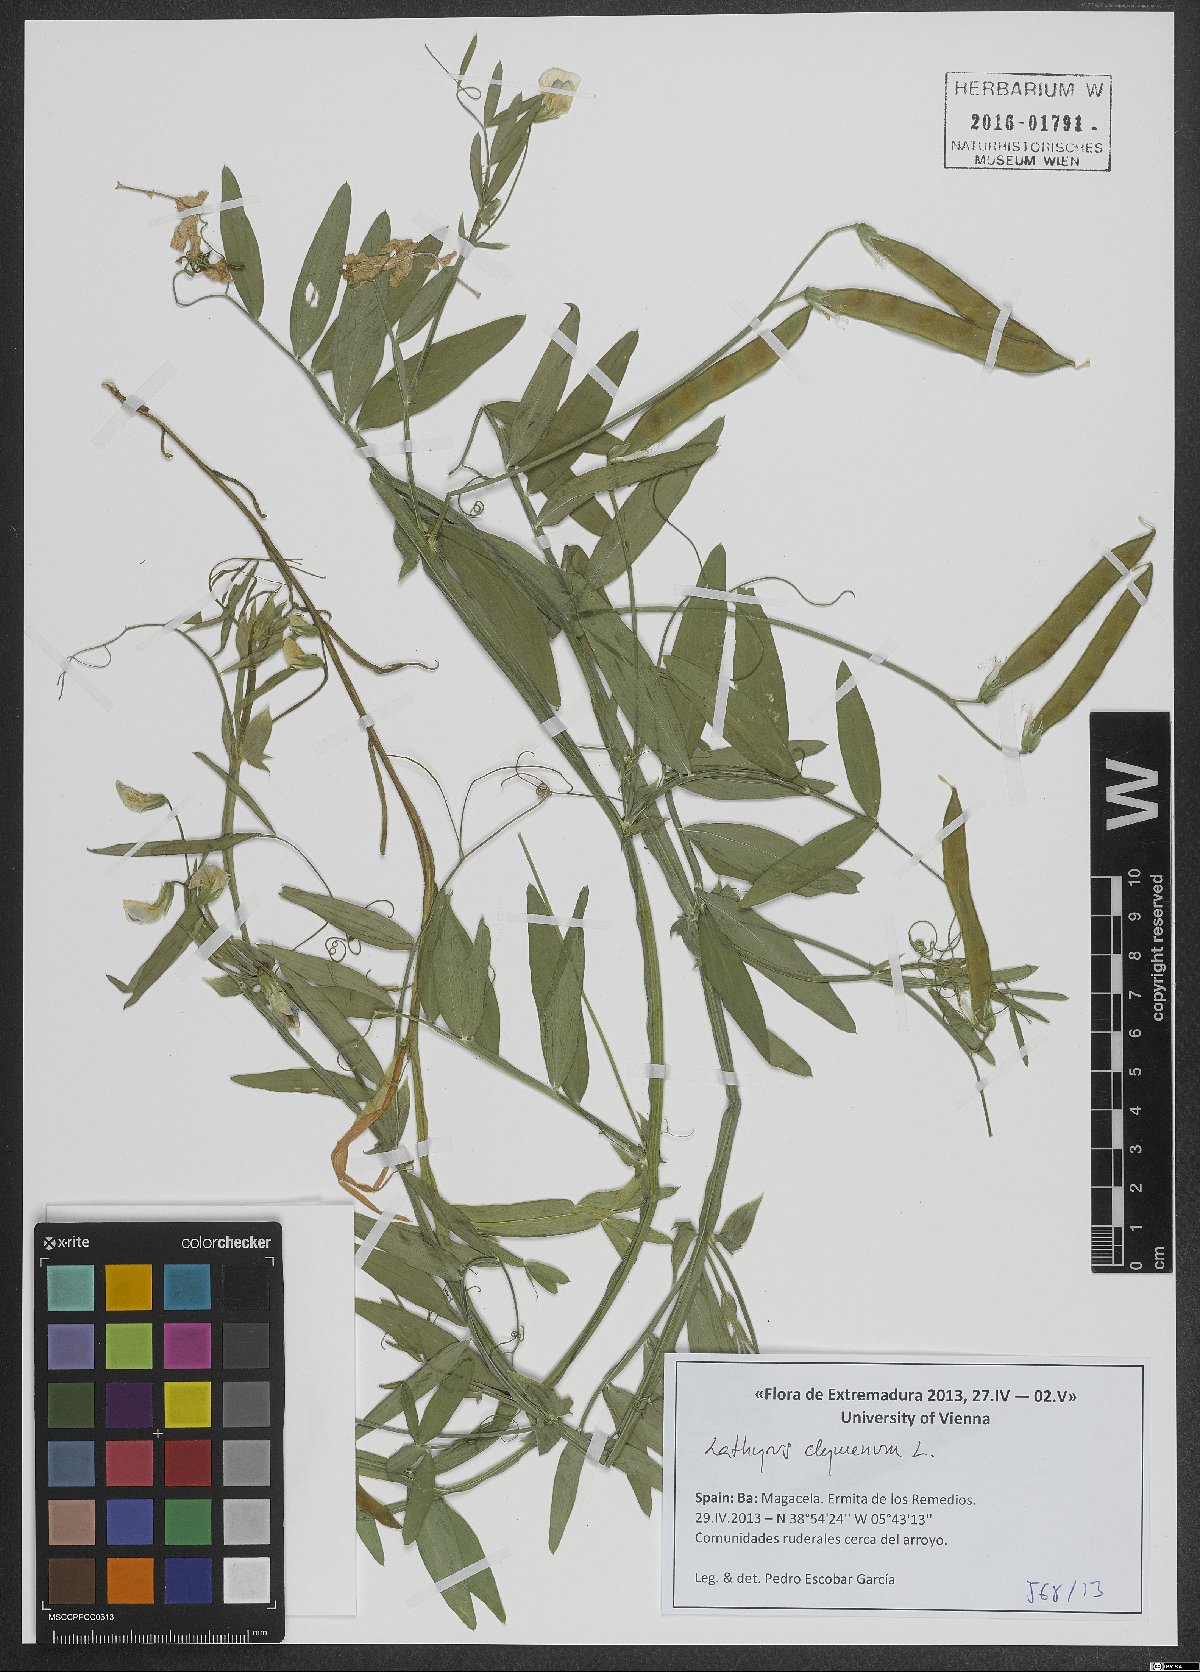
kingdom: Plantae
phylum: Tracheophyta
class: Magnoliopsida
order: Fabales
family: Fabaceae
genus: Lathyrus
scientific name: Lathyrus clymenum
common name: Spanish vetchling
